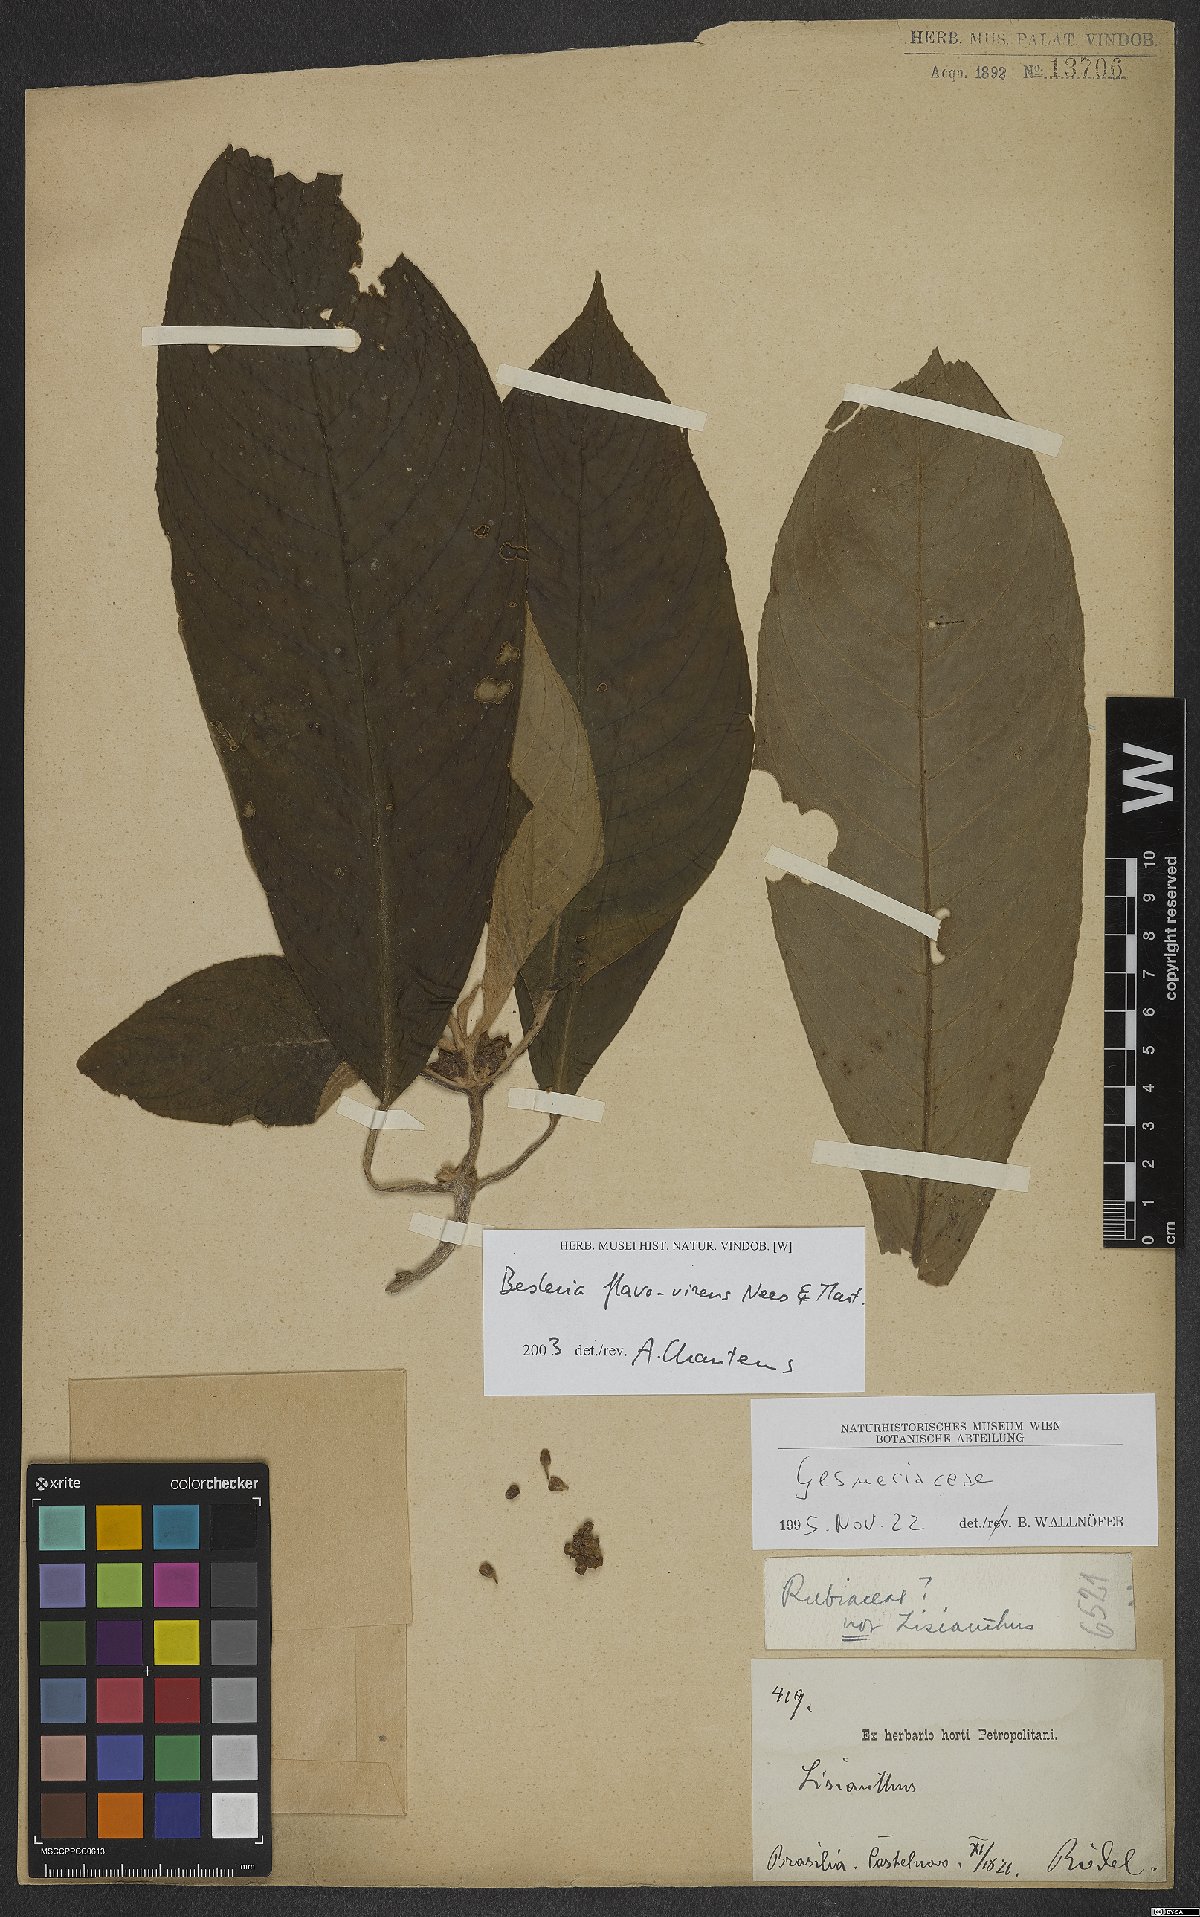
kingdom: Plantae
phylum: Tracheophyta
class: Magnoliopsida
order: Lamiales
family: Gesneriaceae
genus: Besleria
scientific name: Besleria flavovirens
